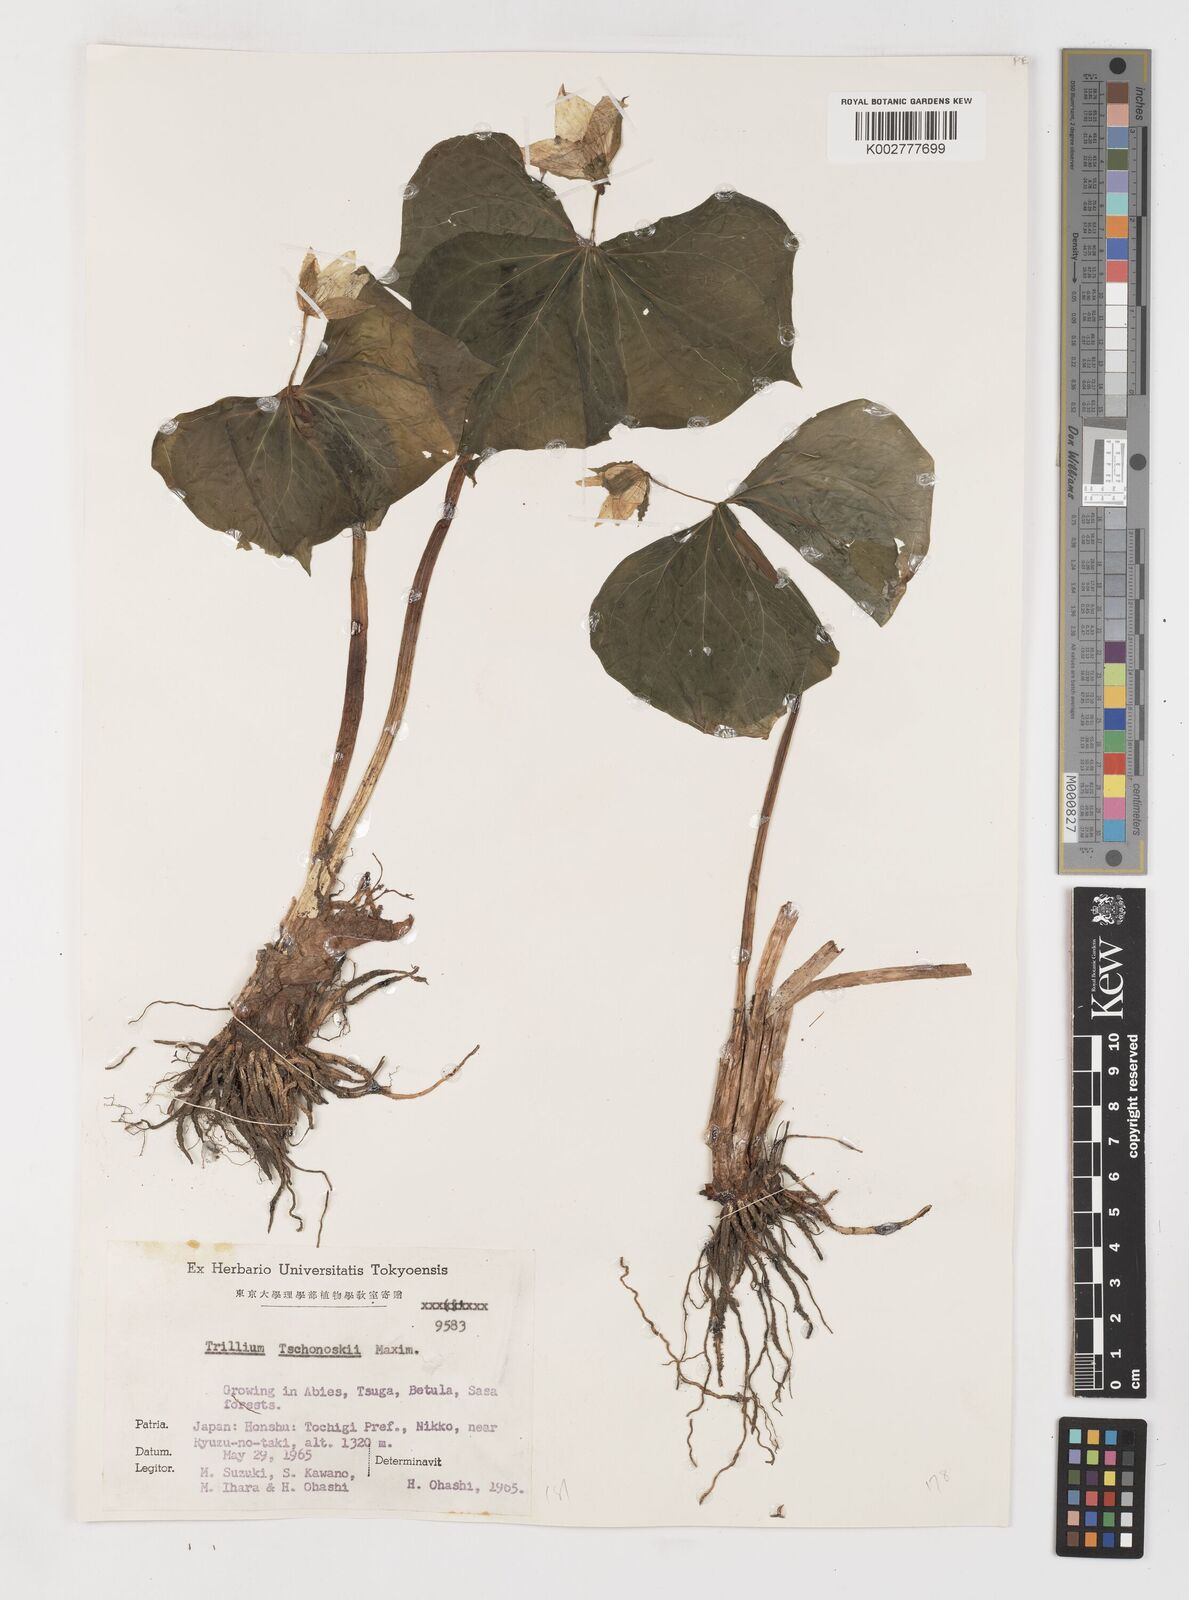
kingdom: Plantae
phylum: Tracheophyta
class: Liliopsida
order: Liliales
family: Melanthiaceae
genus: Trillium
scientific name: Trillium tschonoskii
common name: A pearl on head
